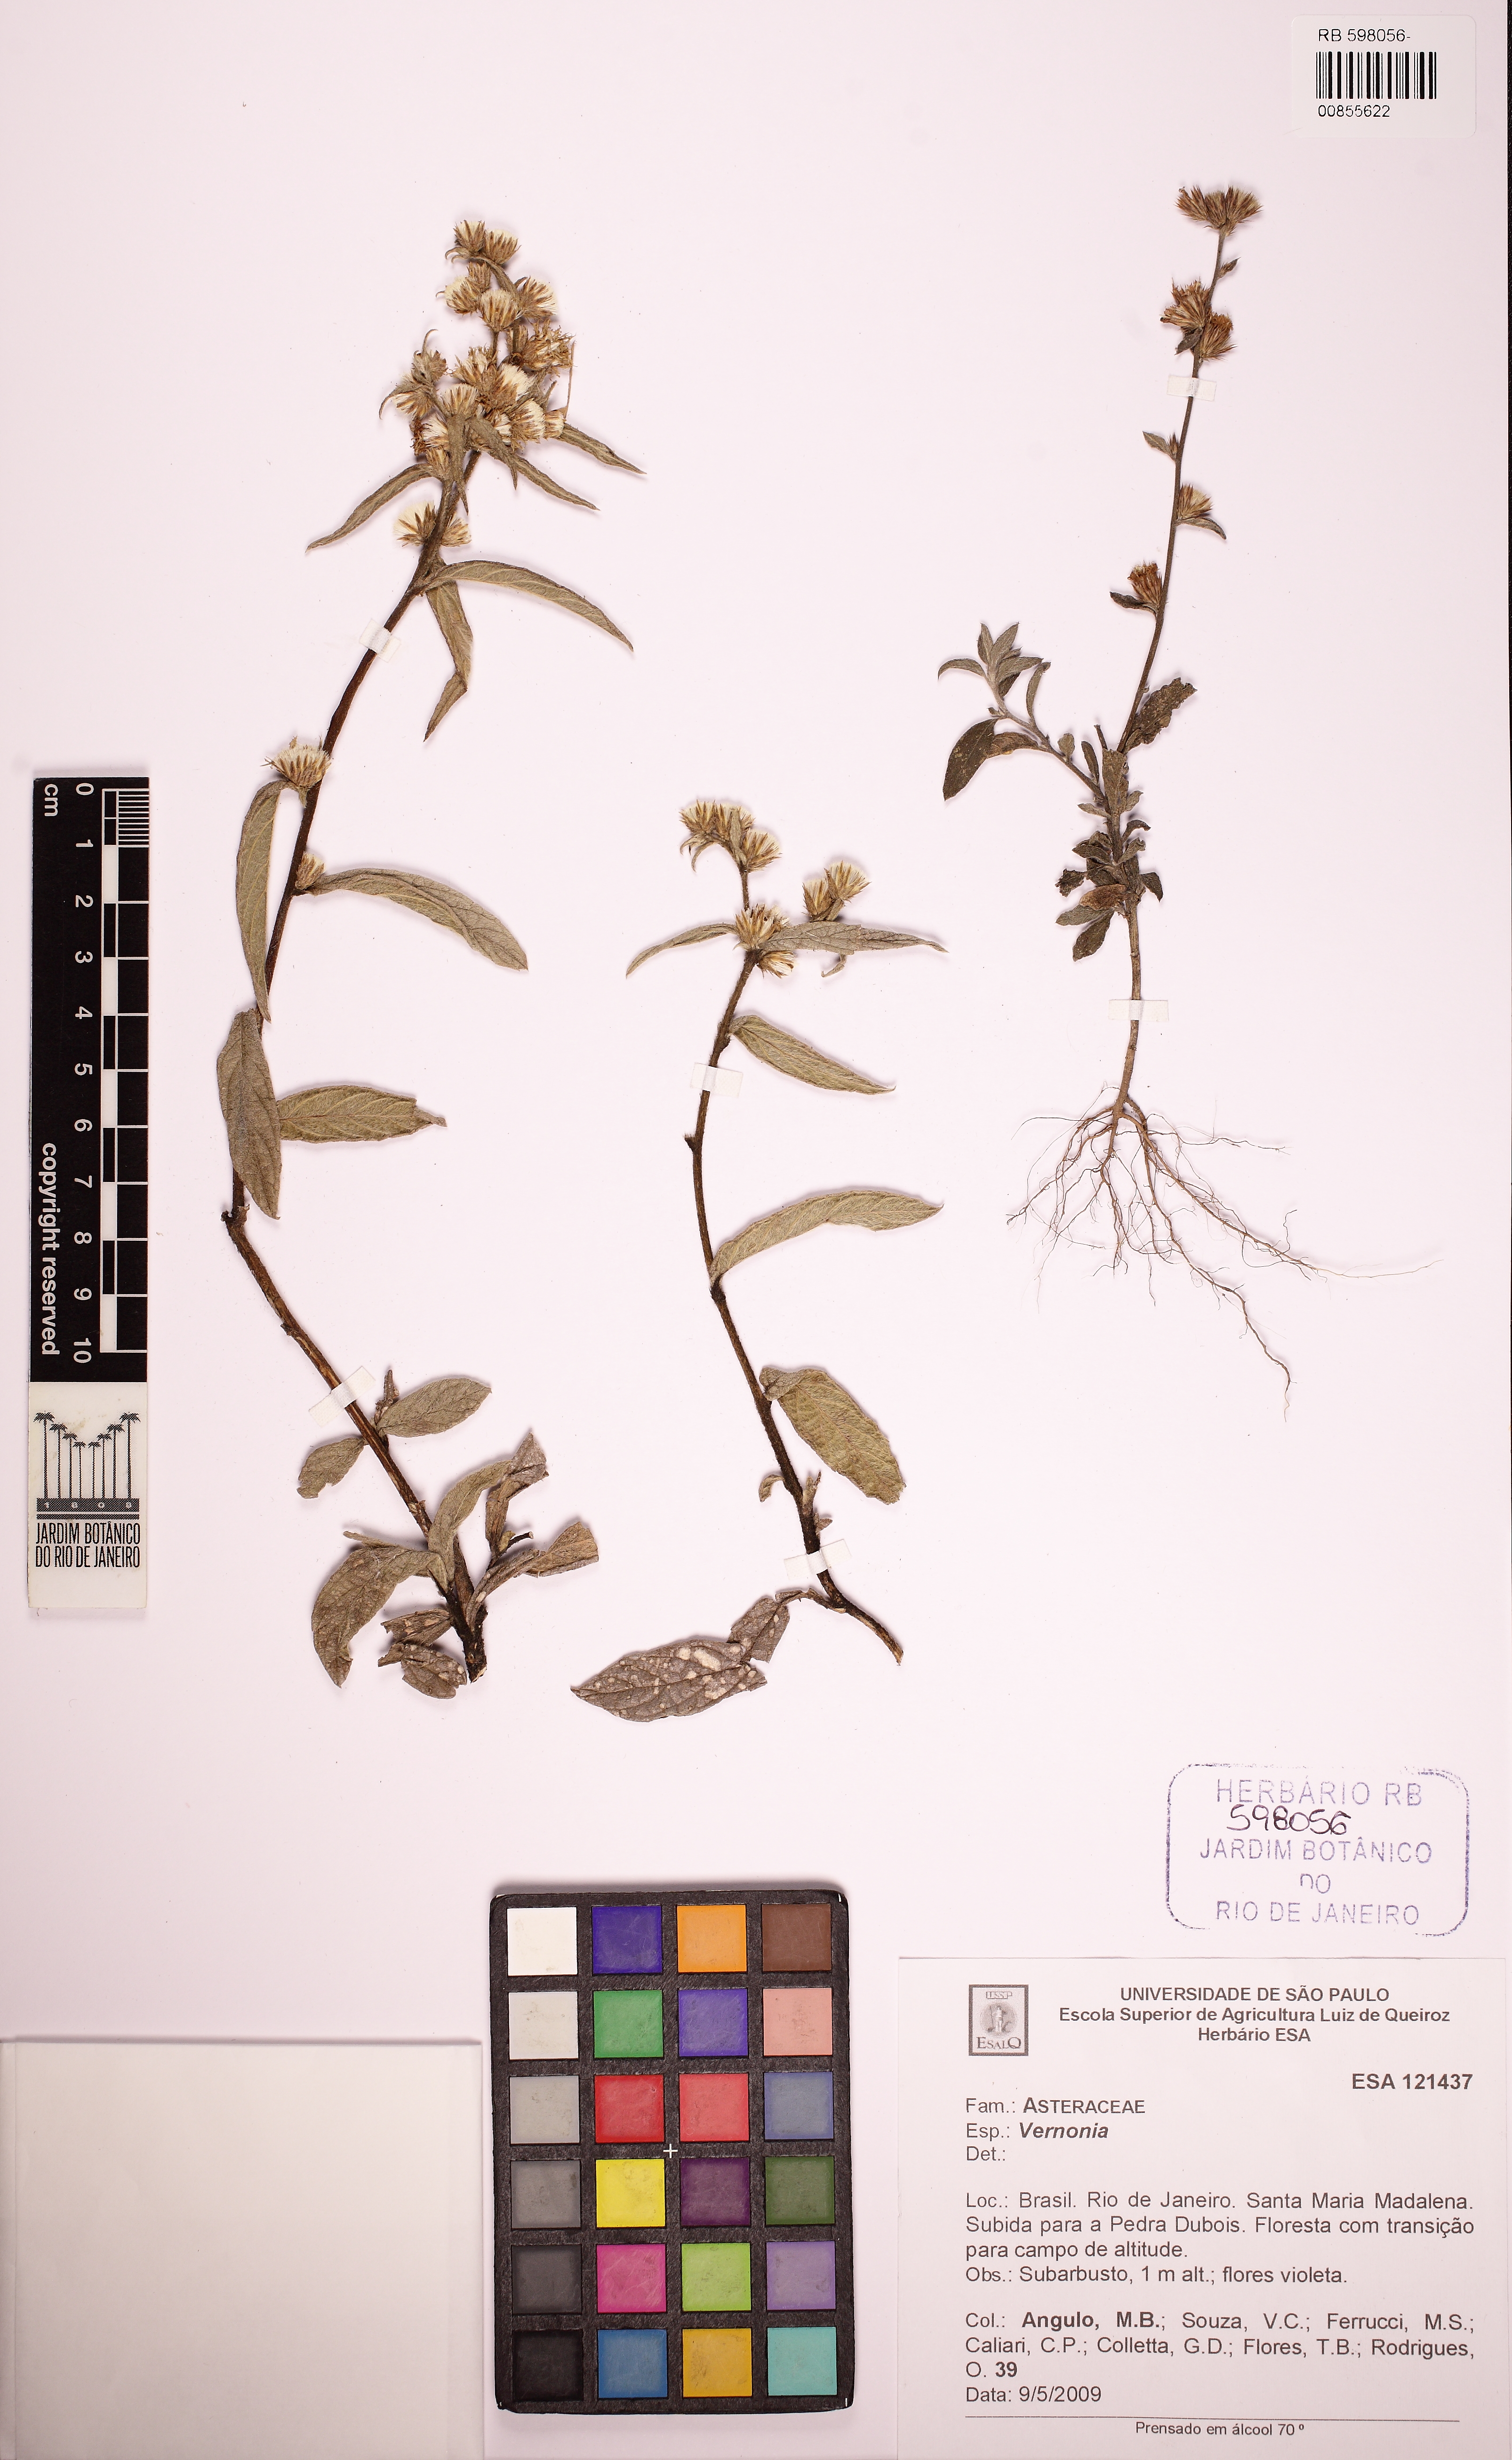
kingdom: Plantae
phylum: Tracheophyta
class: Magnoliopsida
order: Asterales
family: Asteraceae
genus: Vernonia
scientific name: Vernonia
